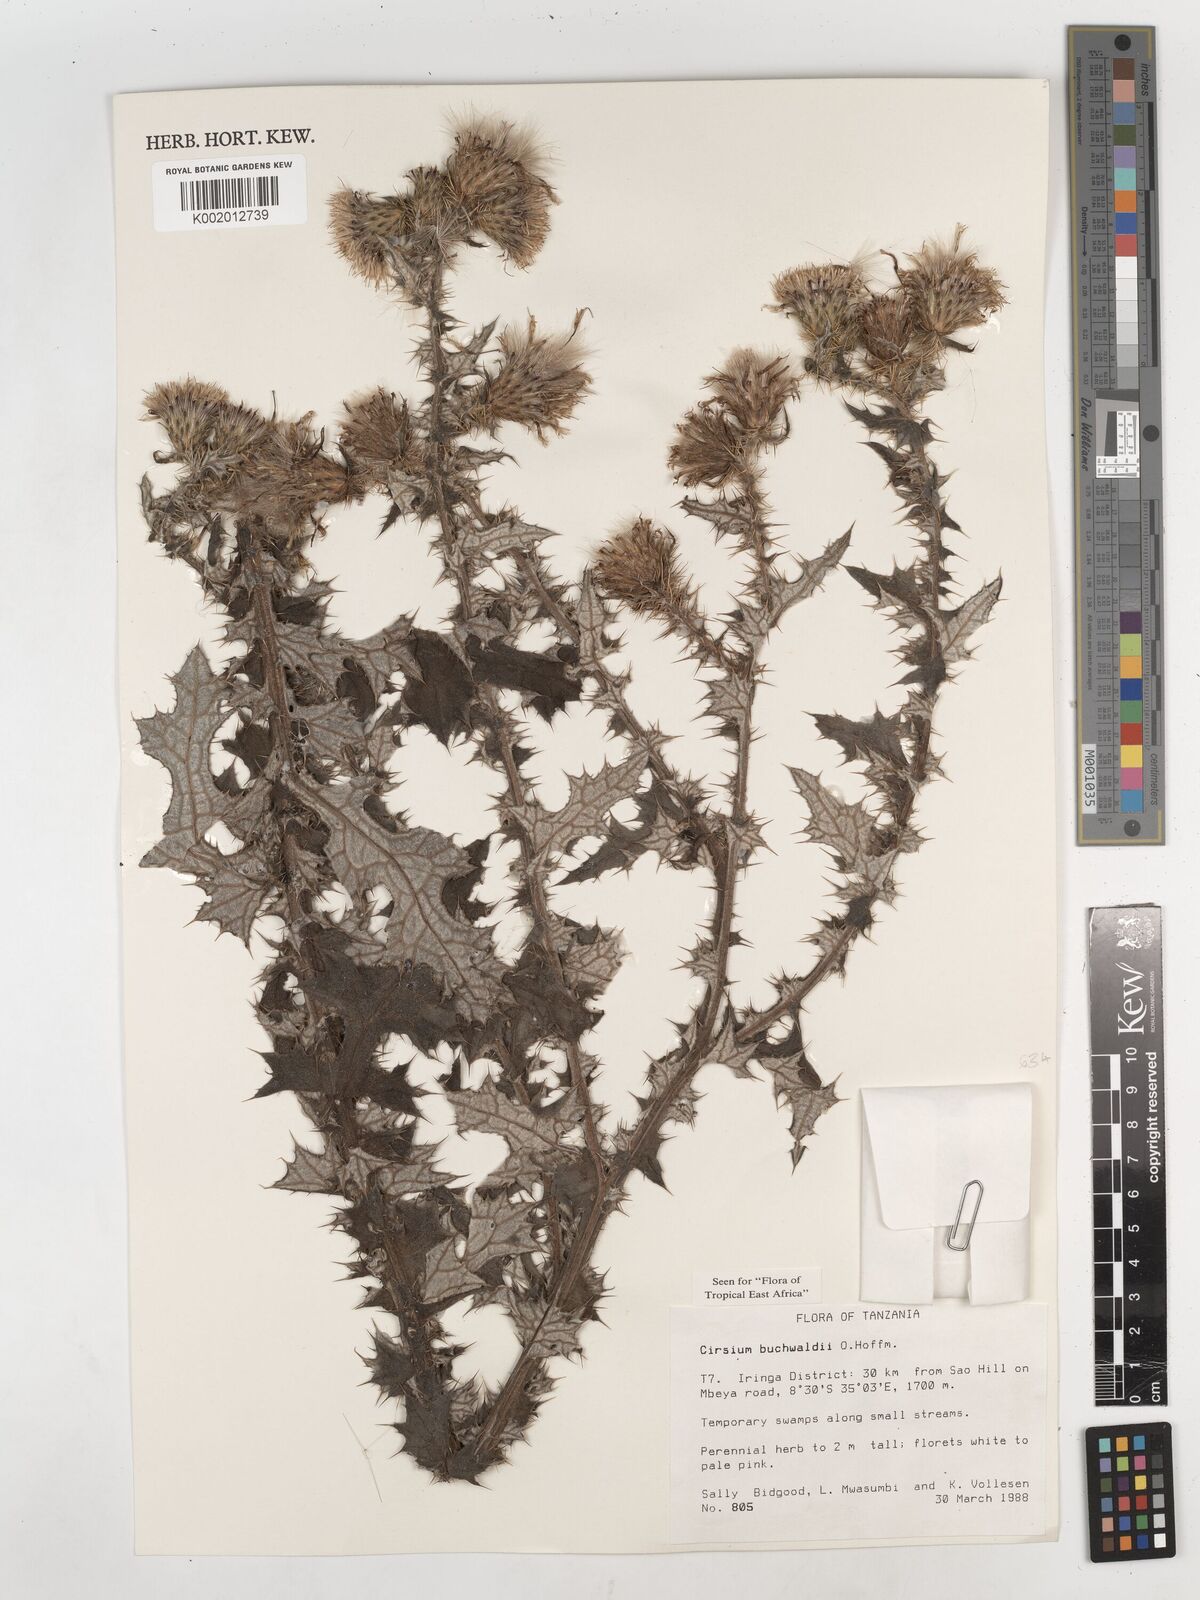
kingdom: Plantae
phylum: Tracheophyta
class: Magnoliopsida
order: Asterales
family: Asteraceae
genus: Cirsium
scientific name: Cirsium buchwaldii
